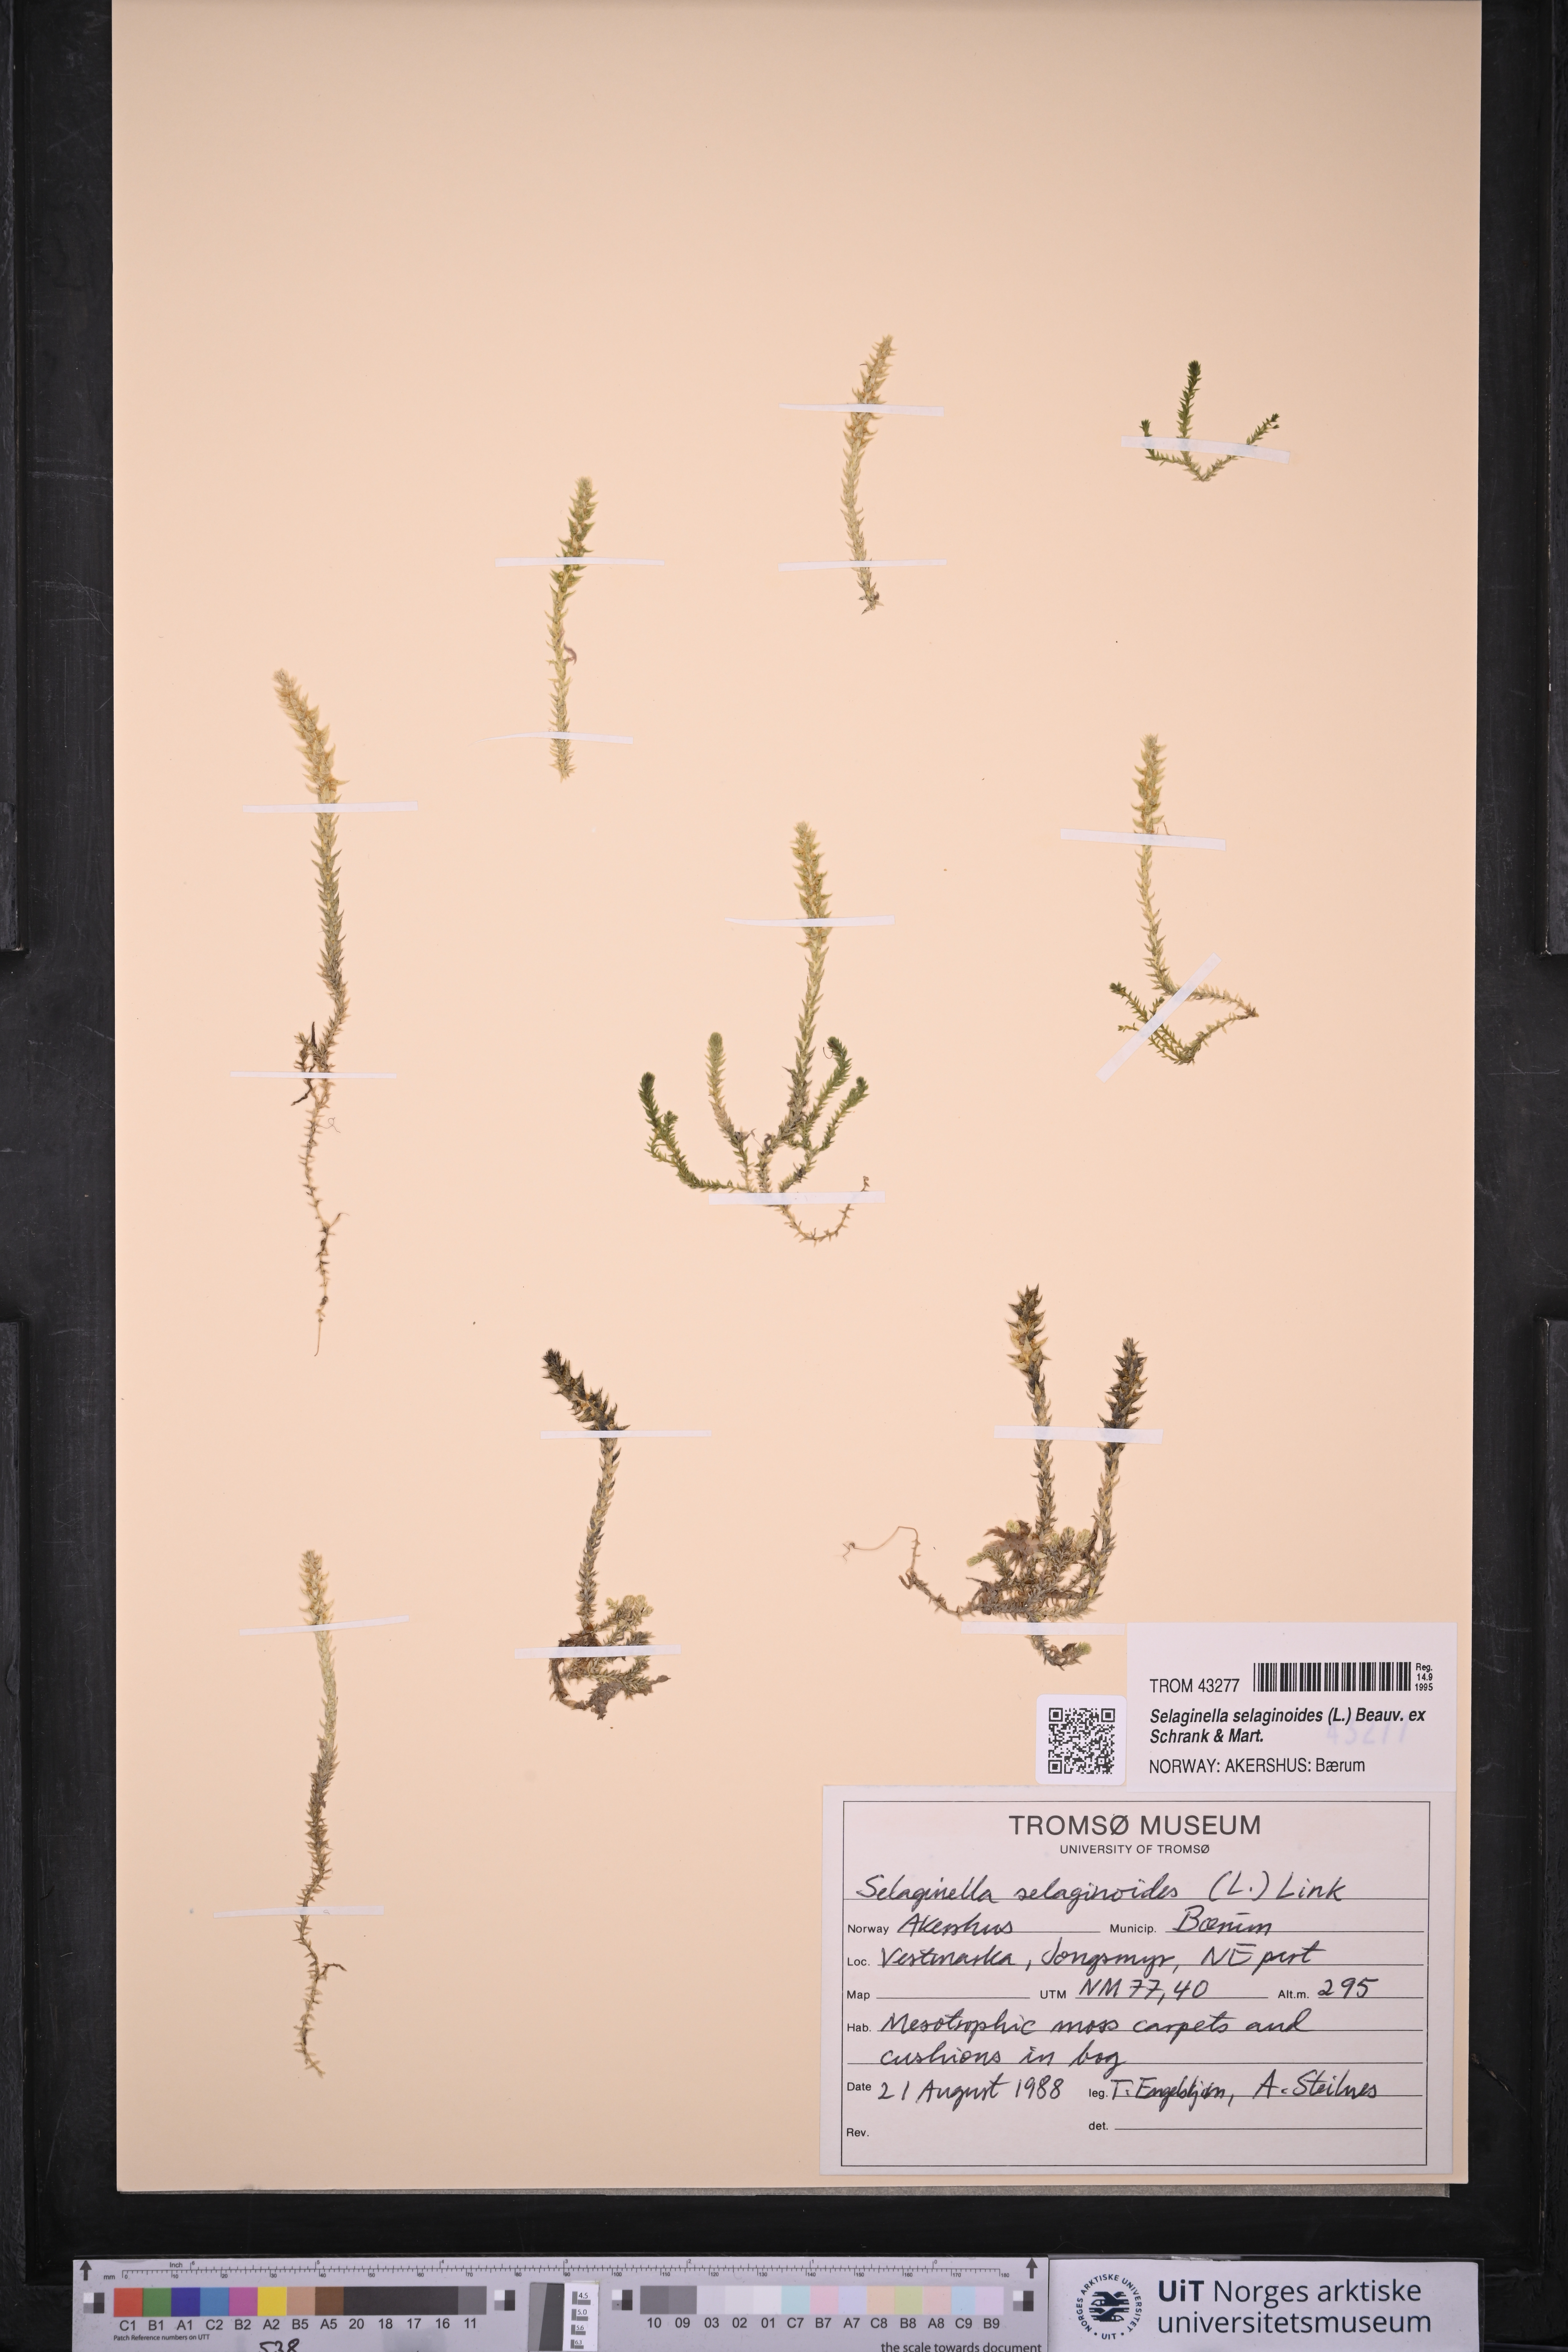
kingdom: Plantae
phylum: Tracheophyta
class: Lycopodiopsida
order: Selaginellales
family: Selaginellaceae
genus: Selaginella
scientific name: Selaginella selaginoides
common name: Prickly mountain-moss
